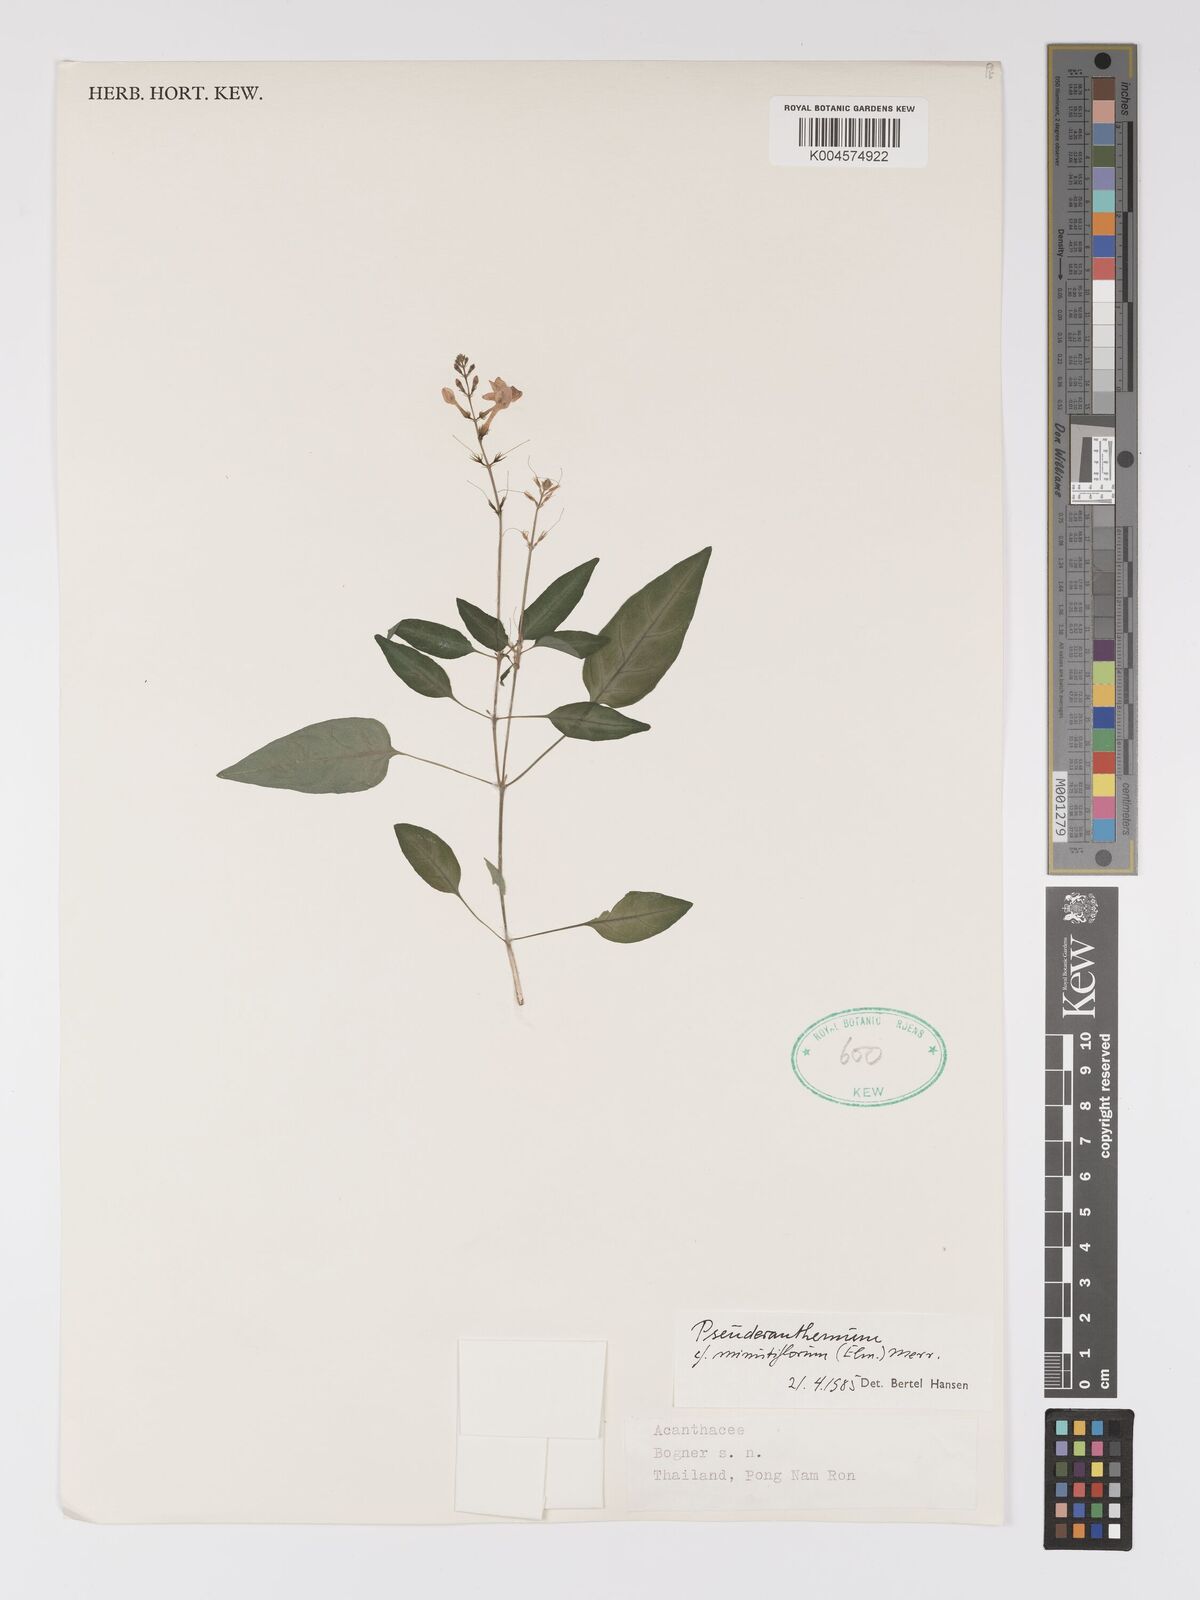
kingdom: Plantae
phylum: Tracheophyta
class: Magnoliopsida
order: Lamiales
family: Acanthaceae
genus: Pseuderanthemum
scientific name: Pseuderanthemum
